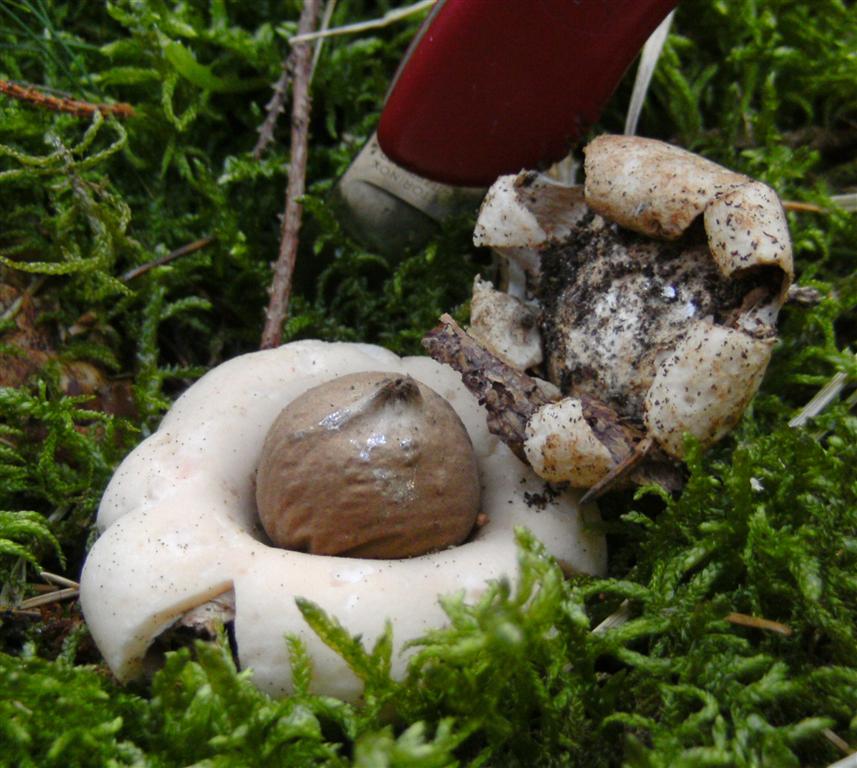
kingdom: Fungi
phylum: Basidiomycota
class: Agaricomycetes
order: Geastrales
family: Geastraceae
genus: Geastrum
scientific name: Geastrum fimbriatum
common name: frynset stjernebold
